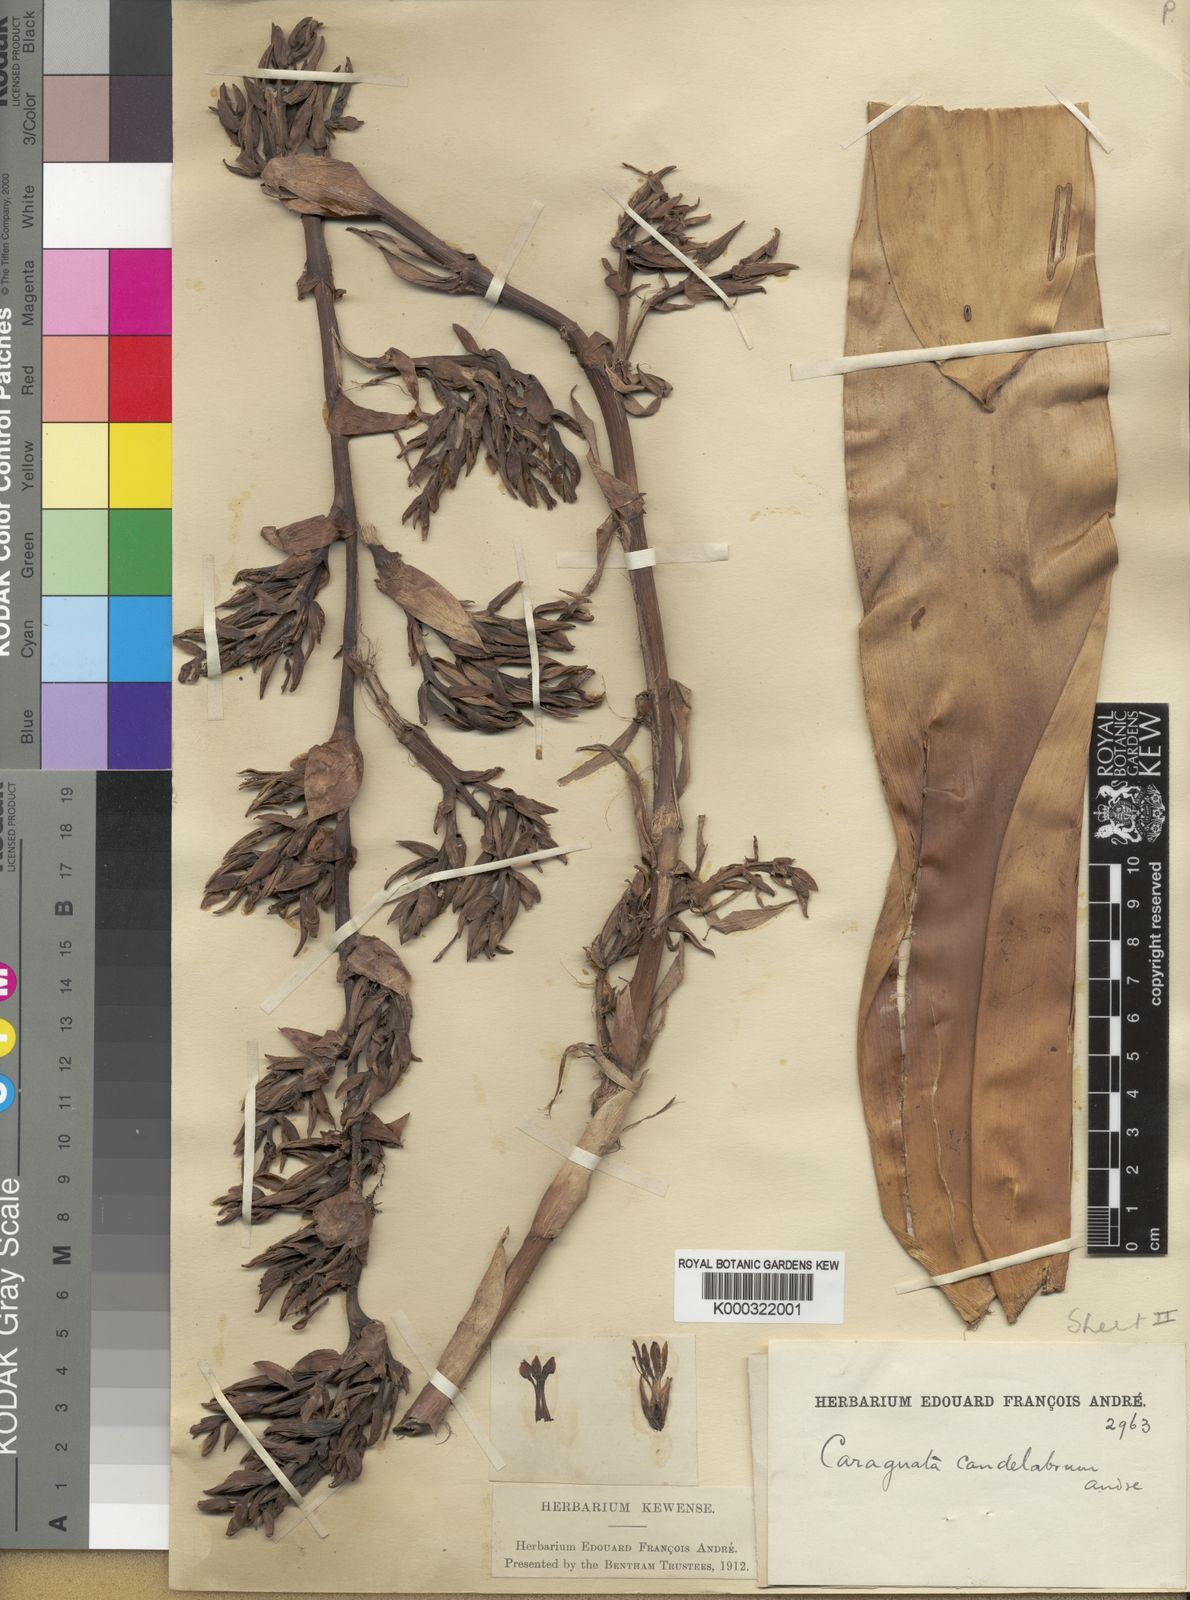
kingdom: Plantae
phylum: Tracheophyta
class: Liliopsida
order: Poales
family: Bromeliaceae
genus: Guzmania
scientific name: Guzmania candelabrum
